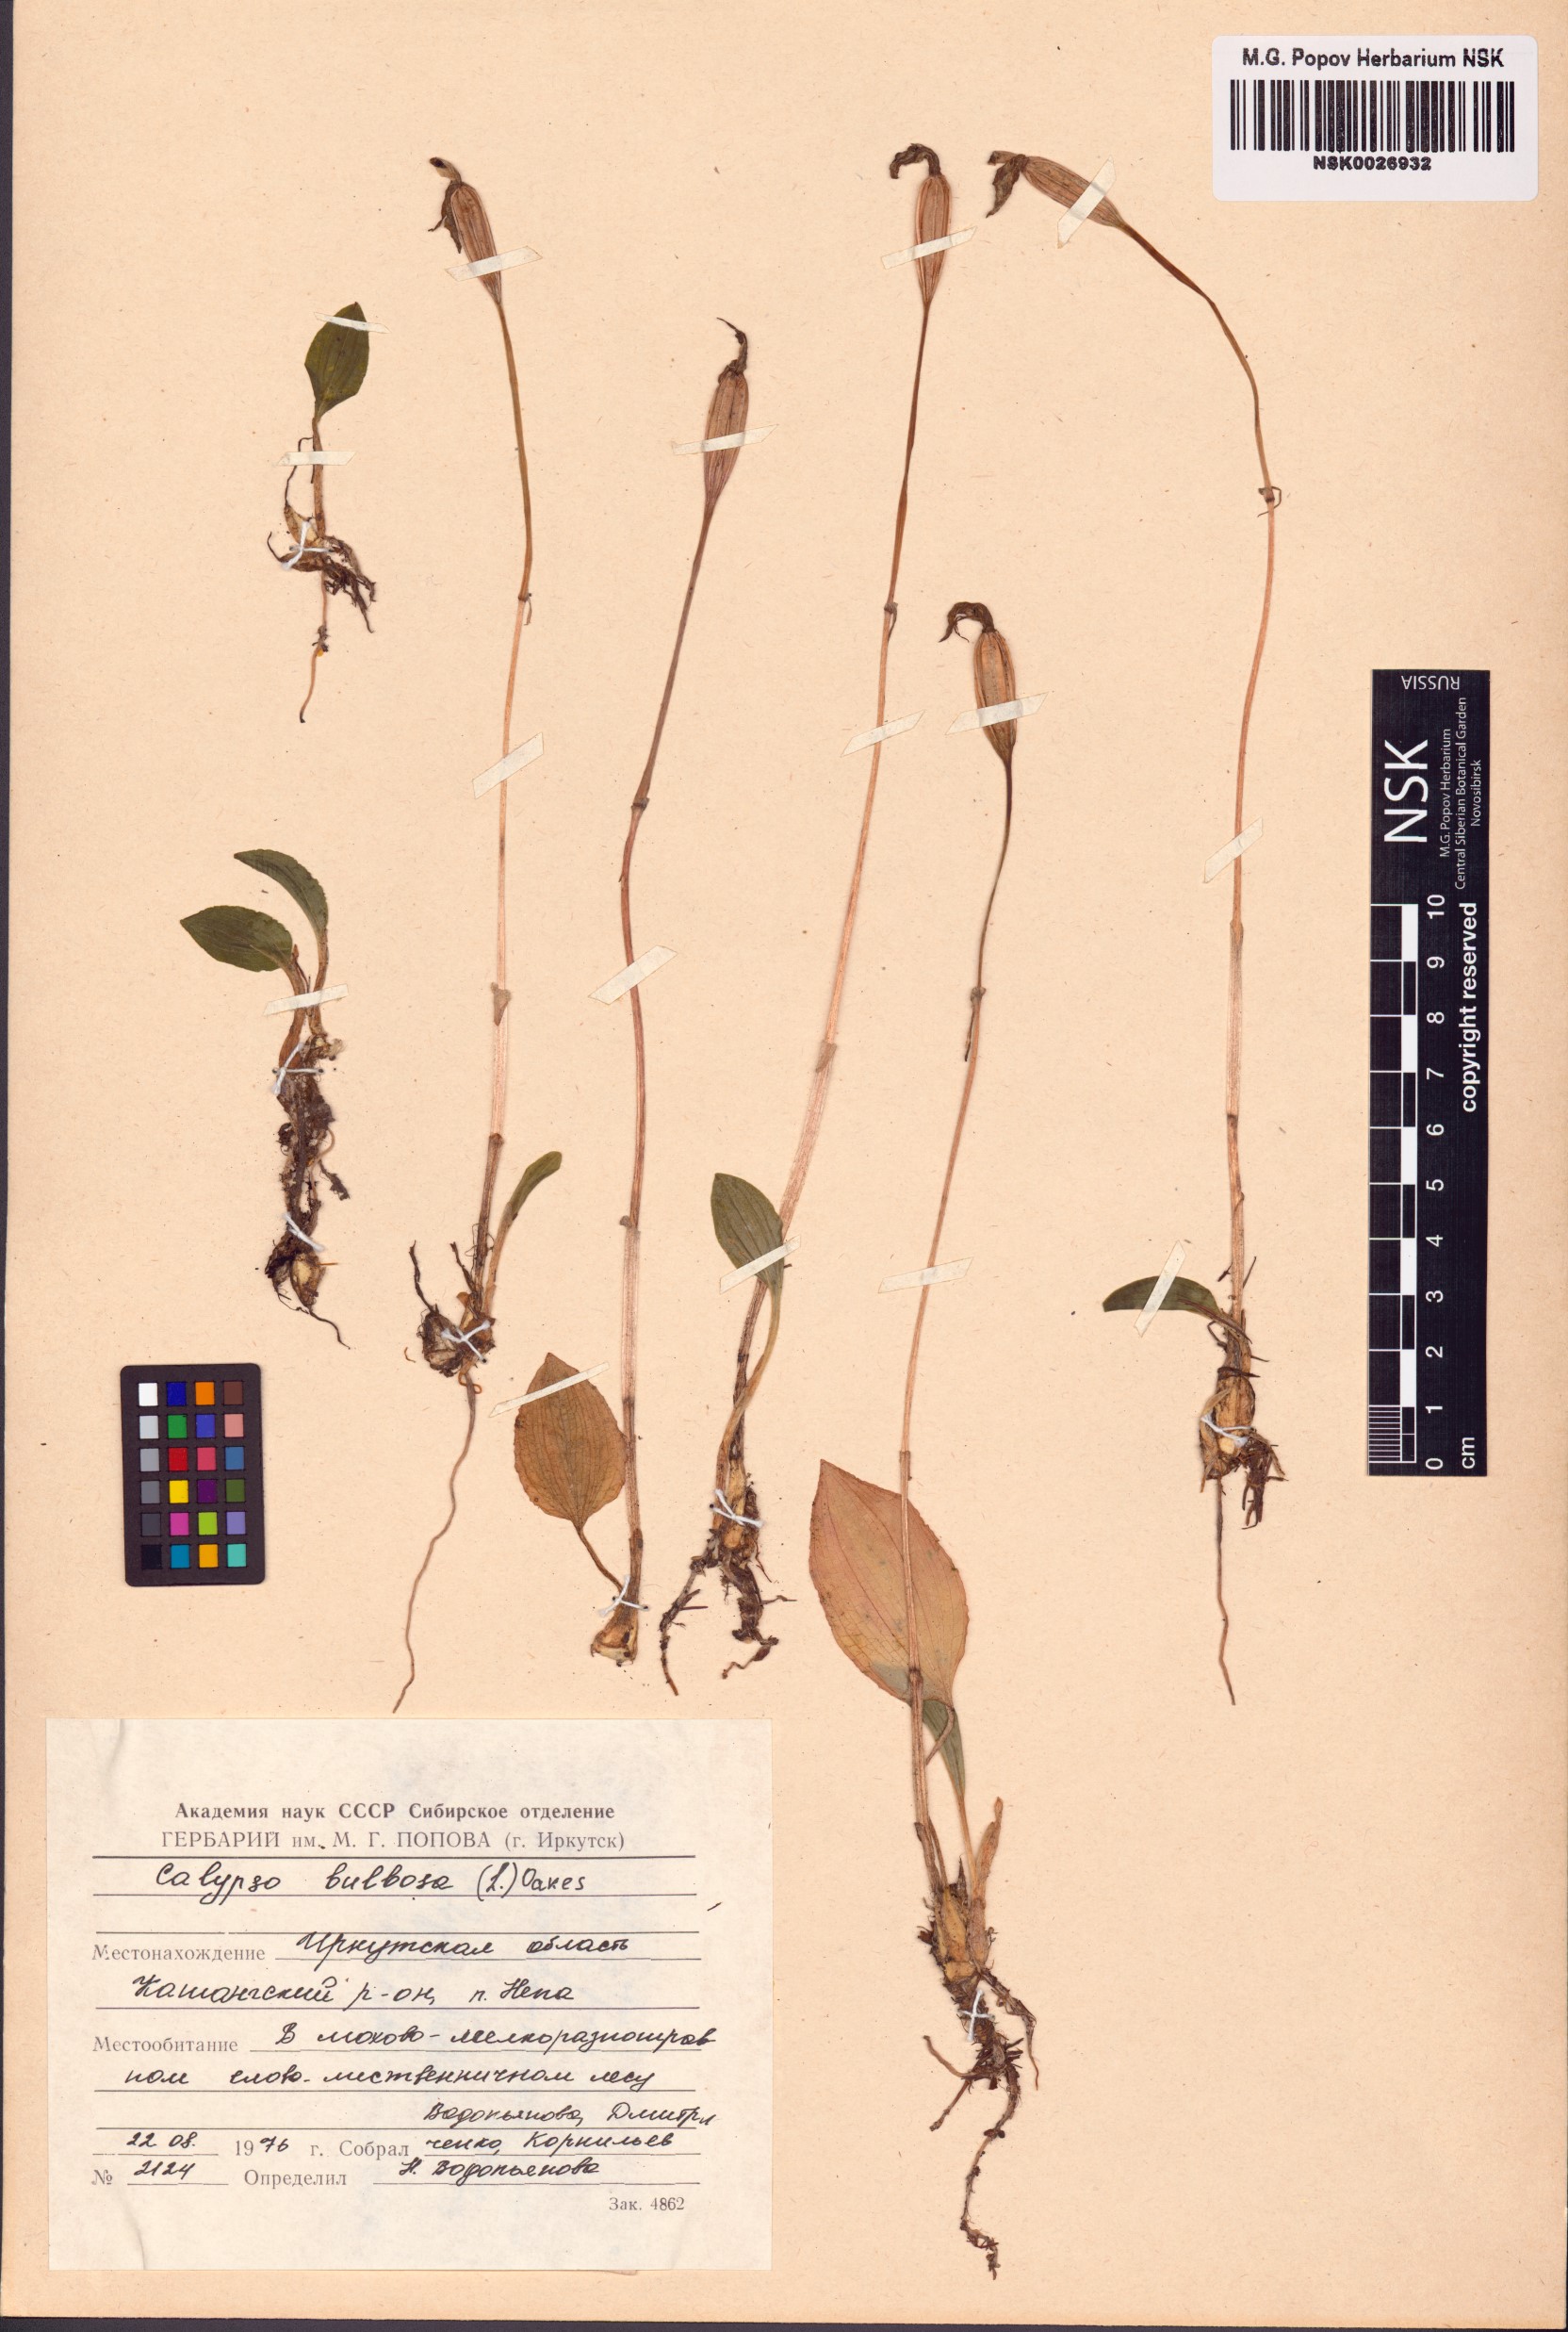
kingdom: Plantae
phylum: Tracheophyta
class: Liliopsida
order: Asparagales
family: Orchidaceae
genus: Calypso
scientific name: Calypso bulbosa
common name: Calypso
